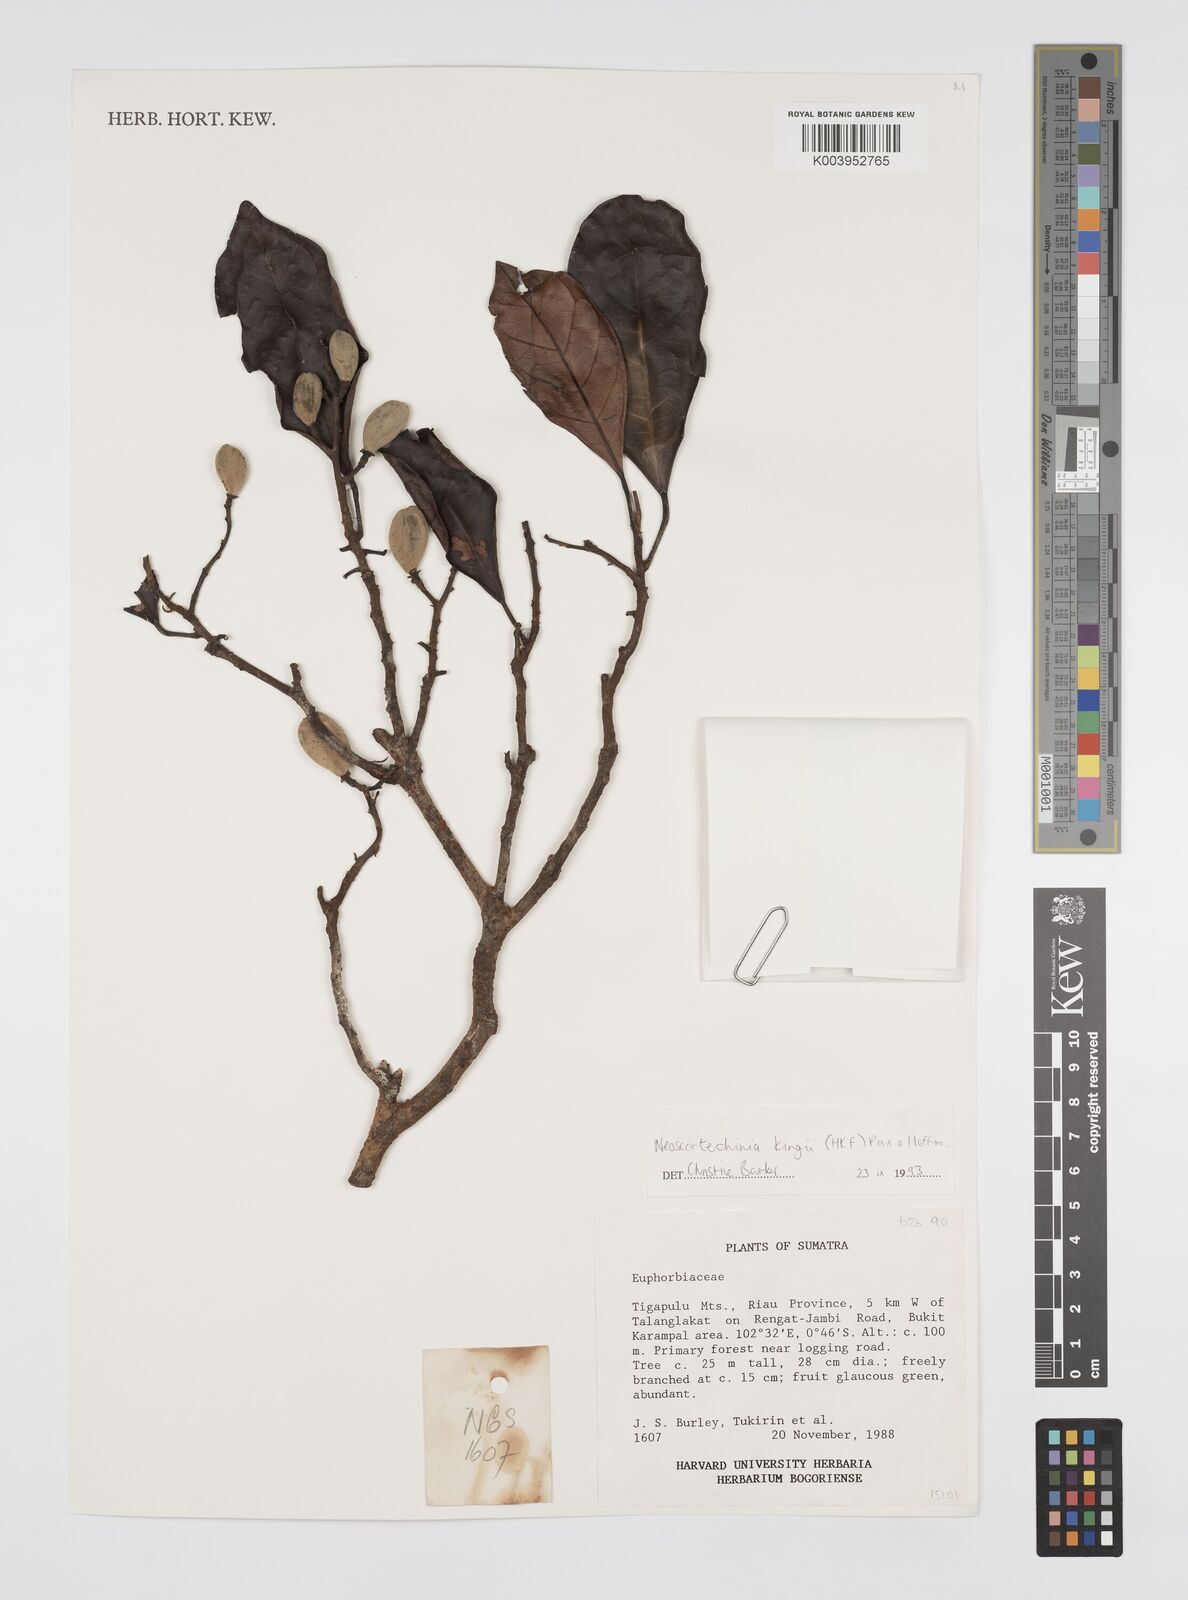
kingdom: Plantae
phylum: Tracheophyta
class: Magnoliopsida
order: Malpighiales
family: Euphorbiaceae
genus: Neoscortechinia
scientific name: Neoscortechinia kingii
